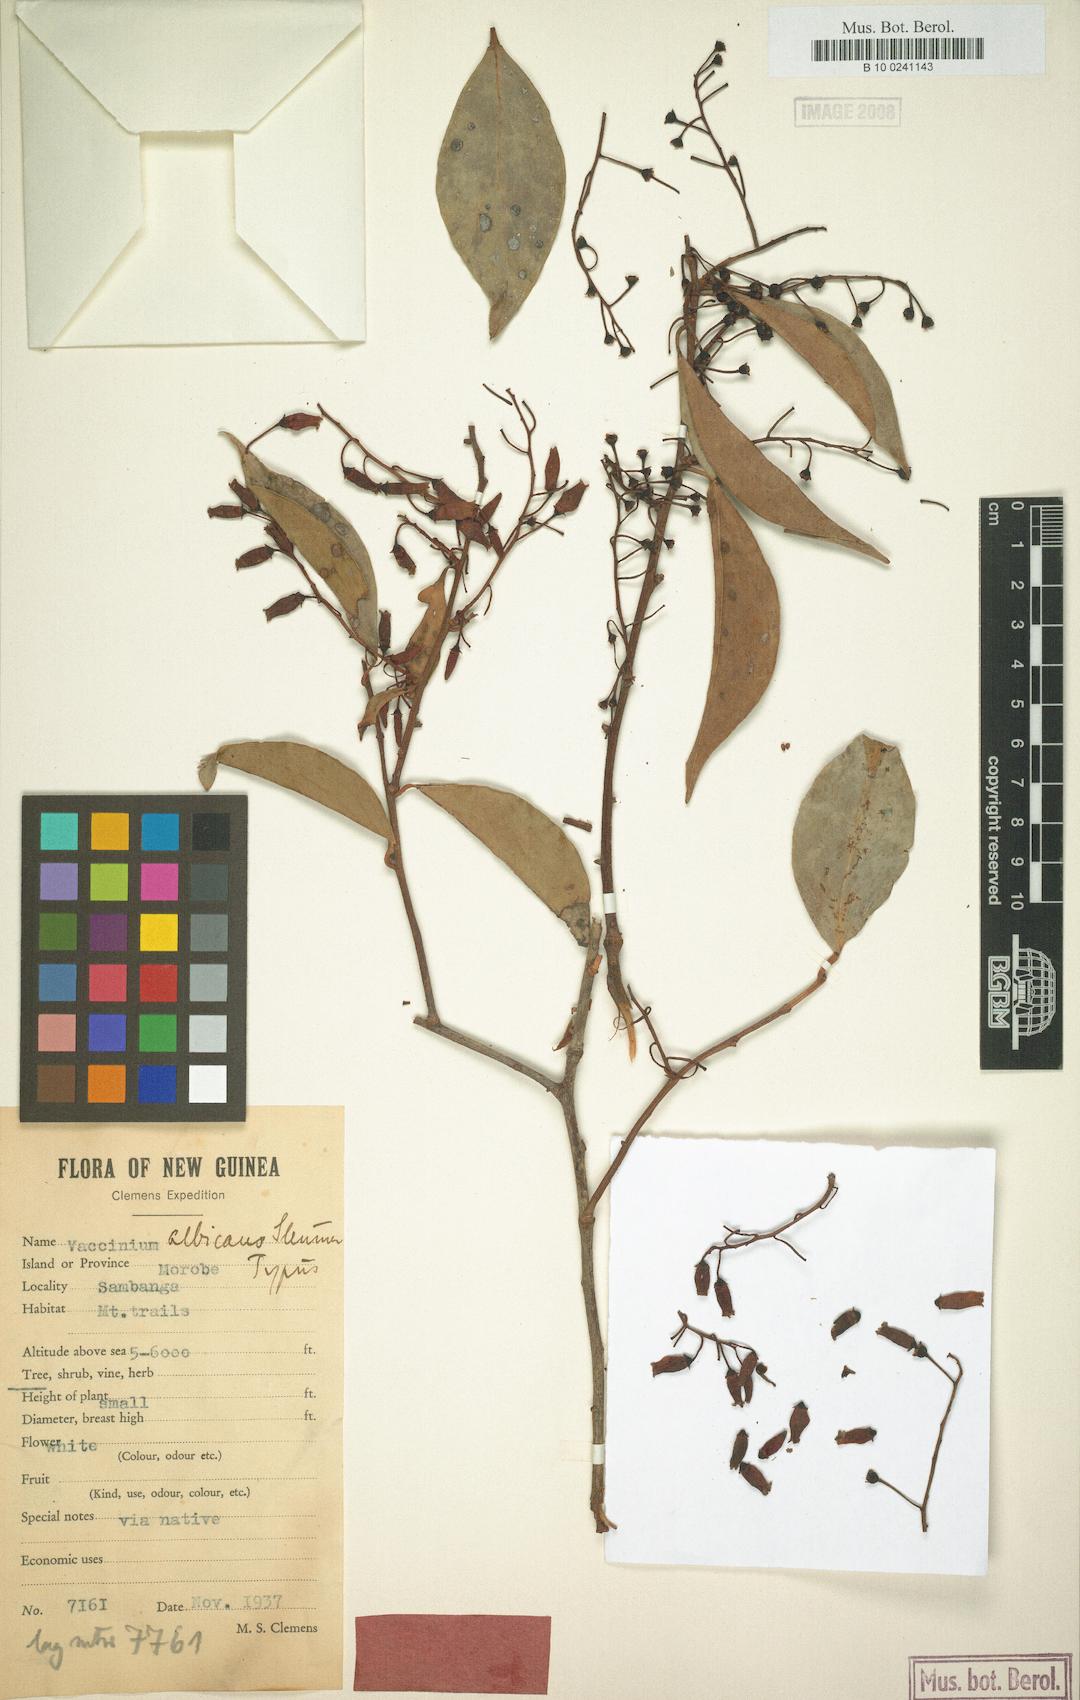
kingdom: Plantae
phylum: Tracheophyta
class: Magnoliopsida
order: Ericales
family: Ericaceae
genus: Vaccinium
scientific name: Vaccinium albicans
